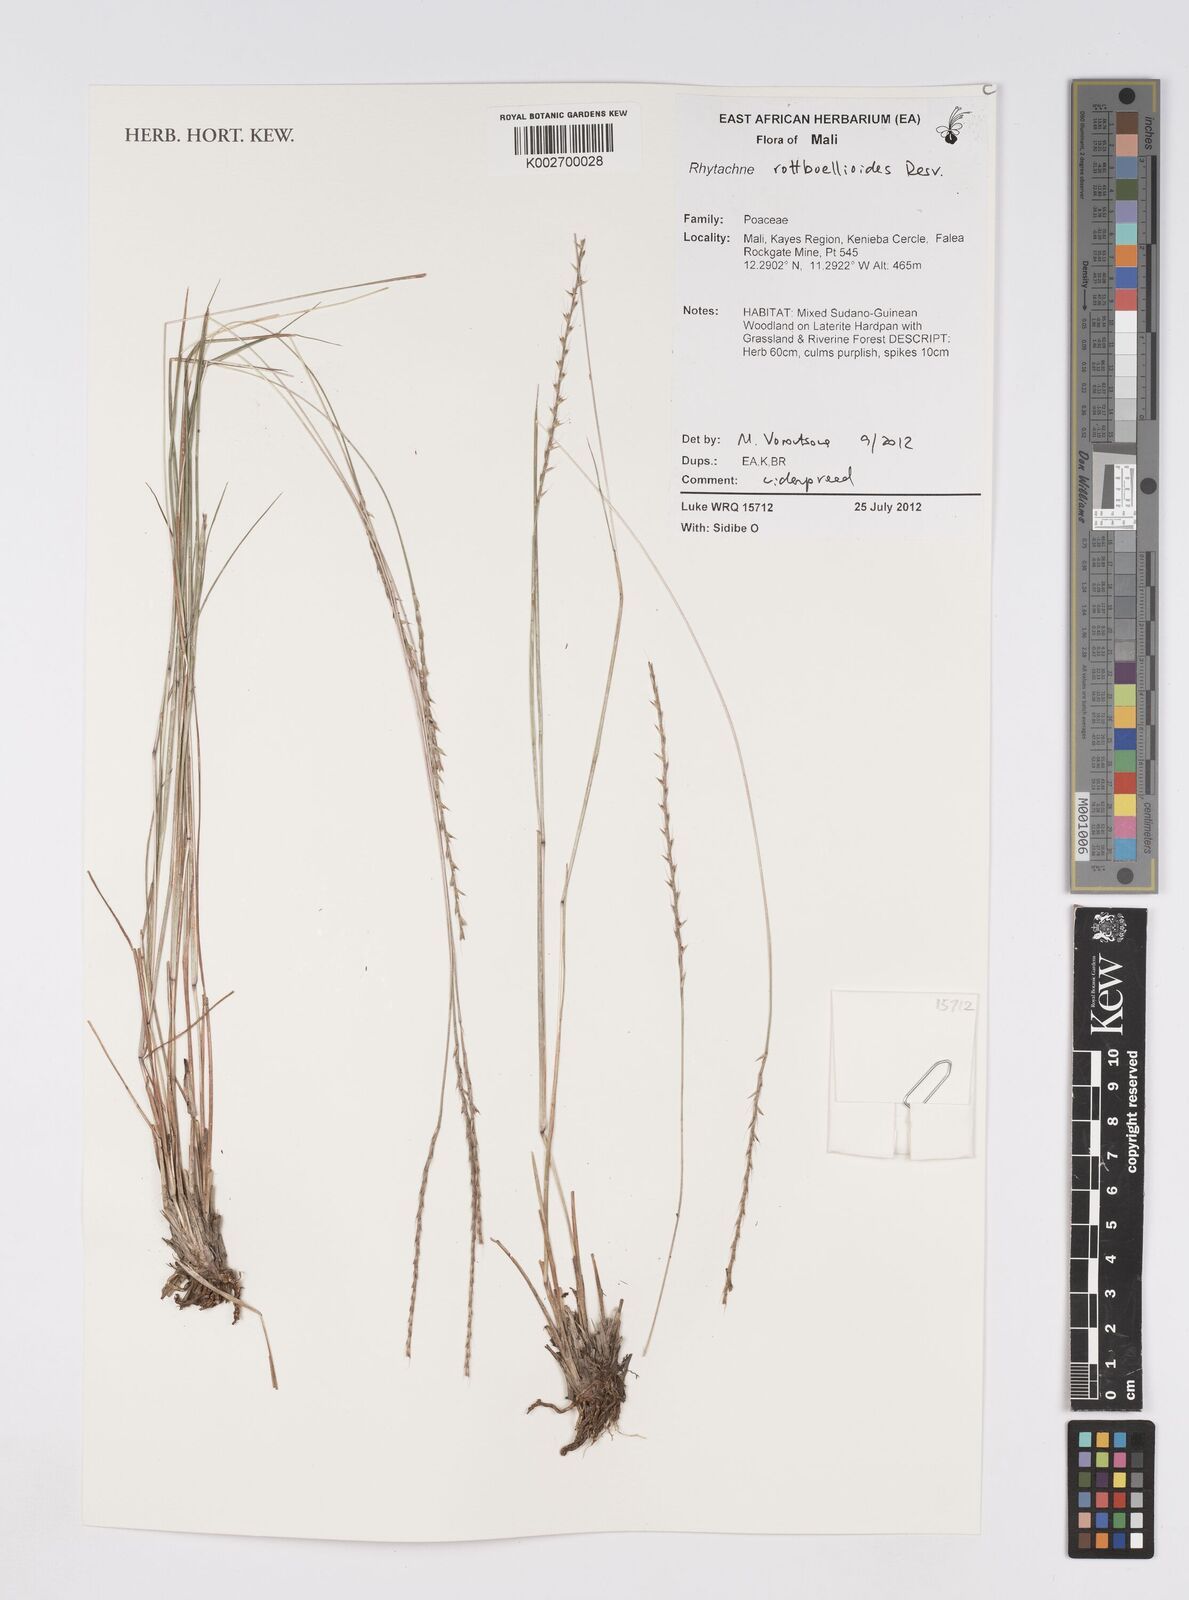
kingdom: Plantae
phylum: Tracheophyta
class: Liliopsida
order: Poales
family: Poaceae
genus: Rhytachne
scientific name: Rhytachne rottboellioides
